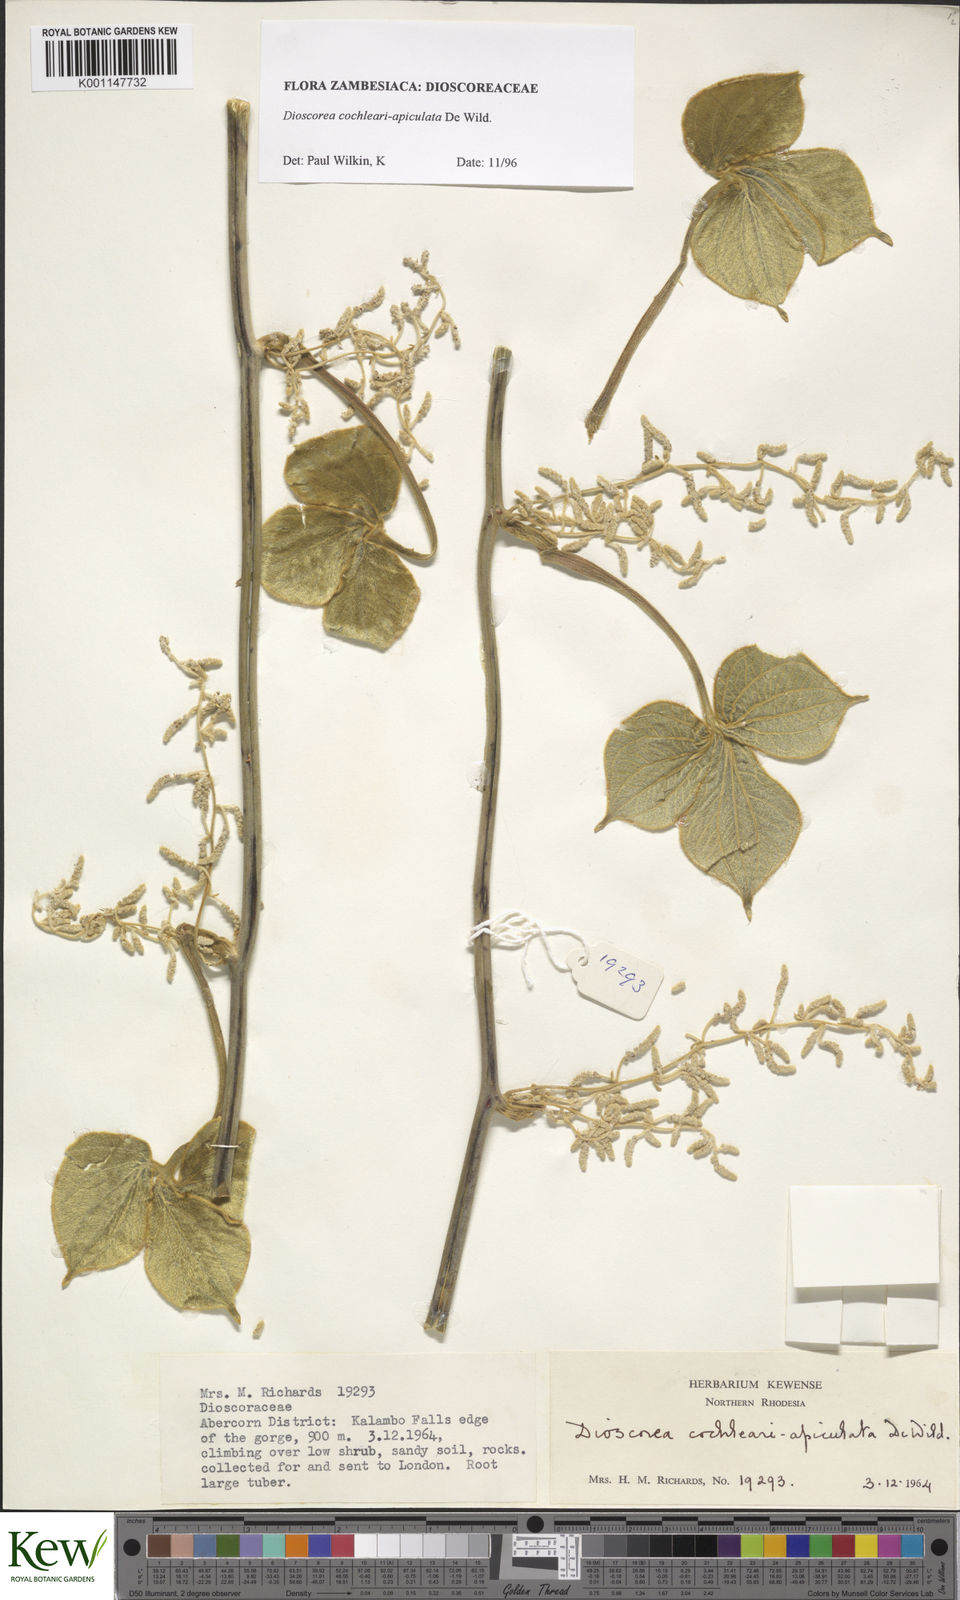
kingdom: Plantae
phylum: Tracheophyta
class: Liliopsida
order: Dioscoreales
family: Dioscoreaceae
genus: Dioscorea
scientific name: Dioscorea cochleariapiculata
